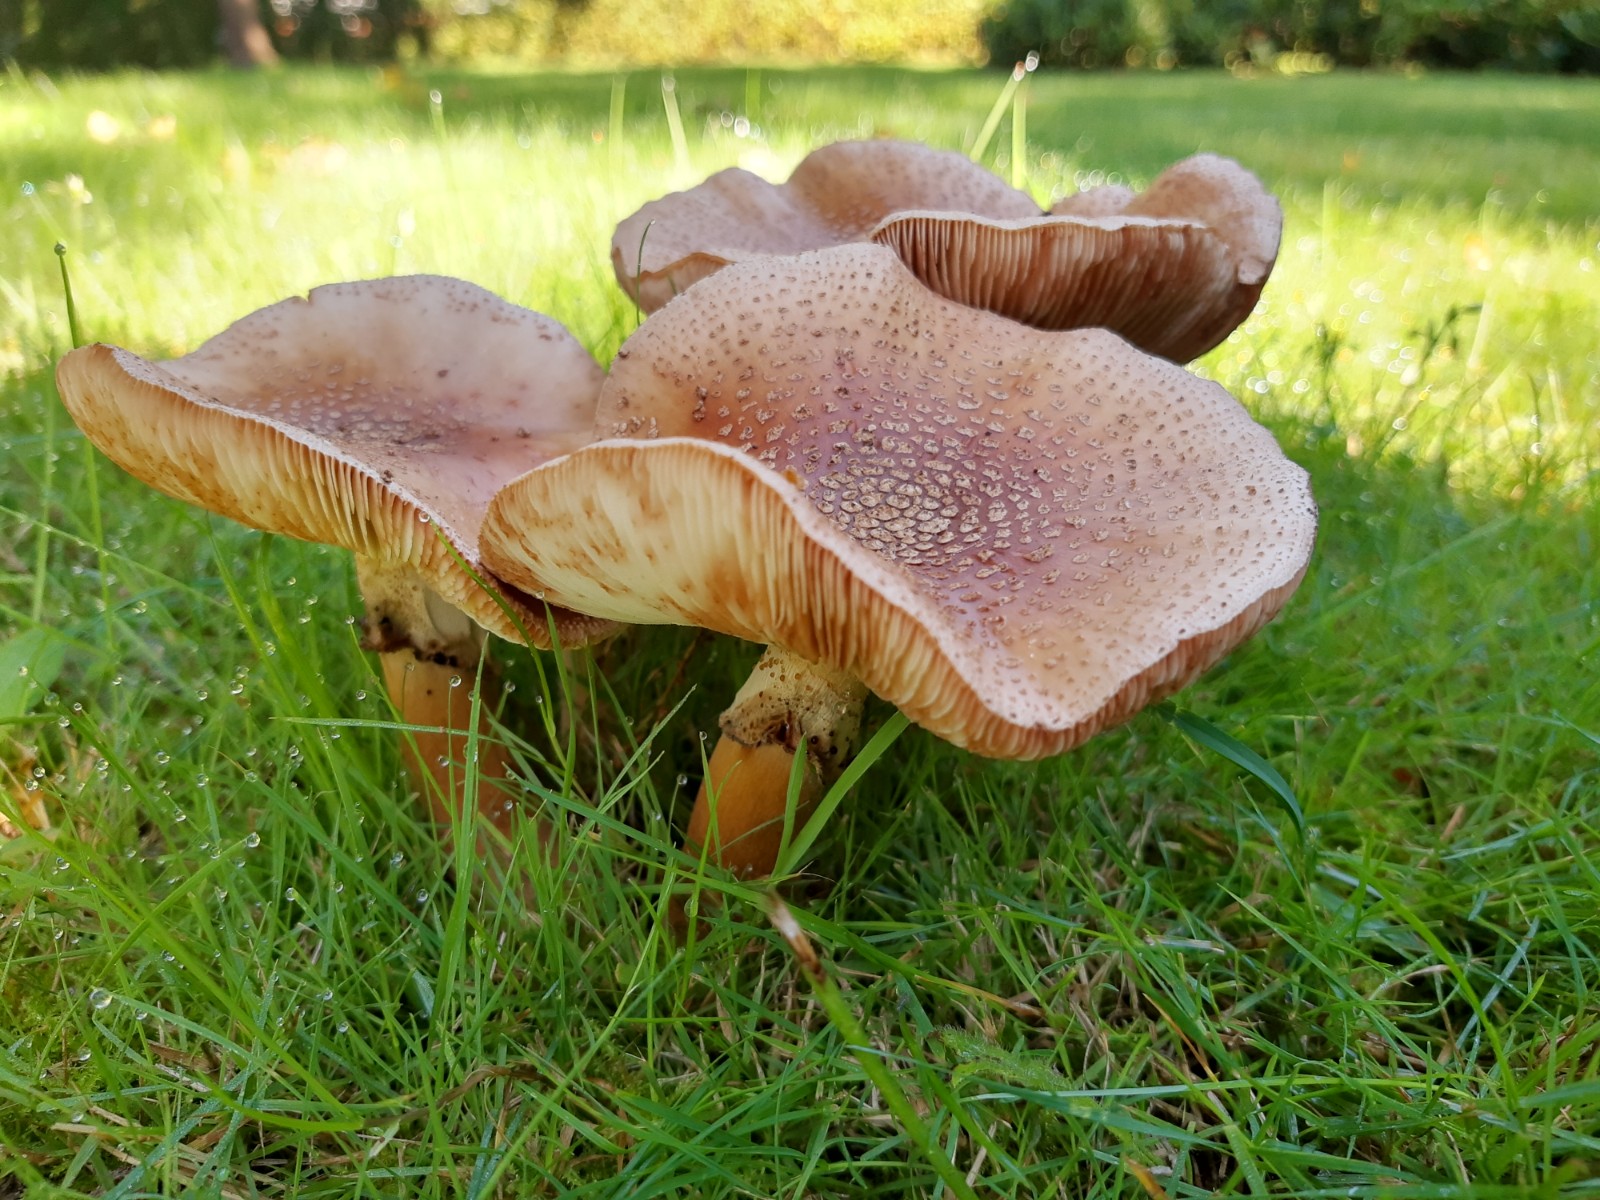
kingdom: Fungi
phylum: Basidiomycota
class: Agaricomycetes
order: Agaricales
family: Amanitaceae
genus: Amanita
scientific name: Amanita rubescens
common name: rødmende fluesvamp
